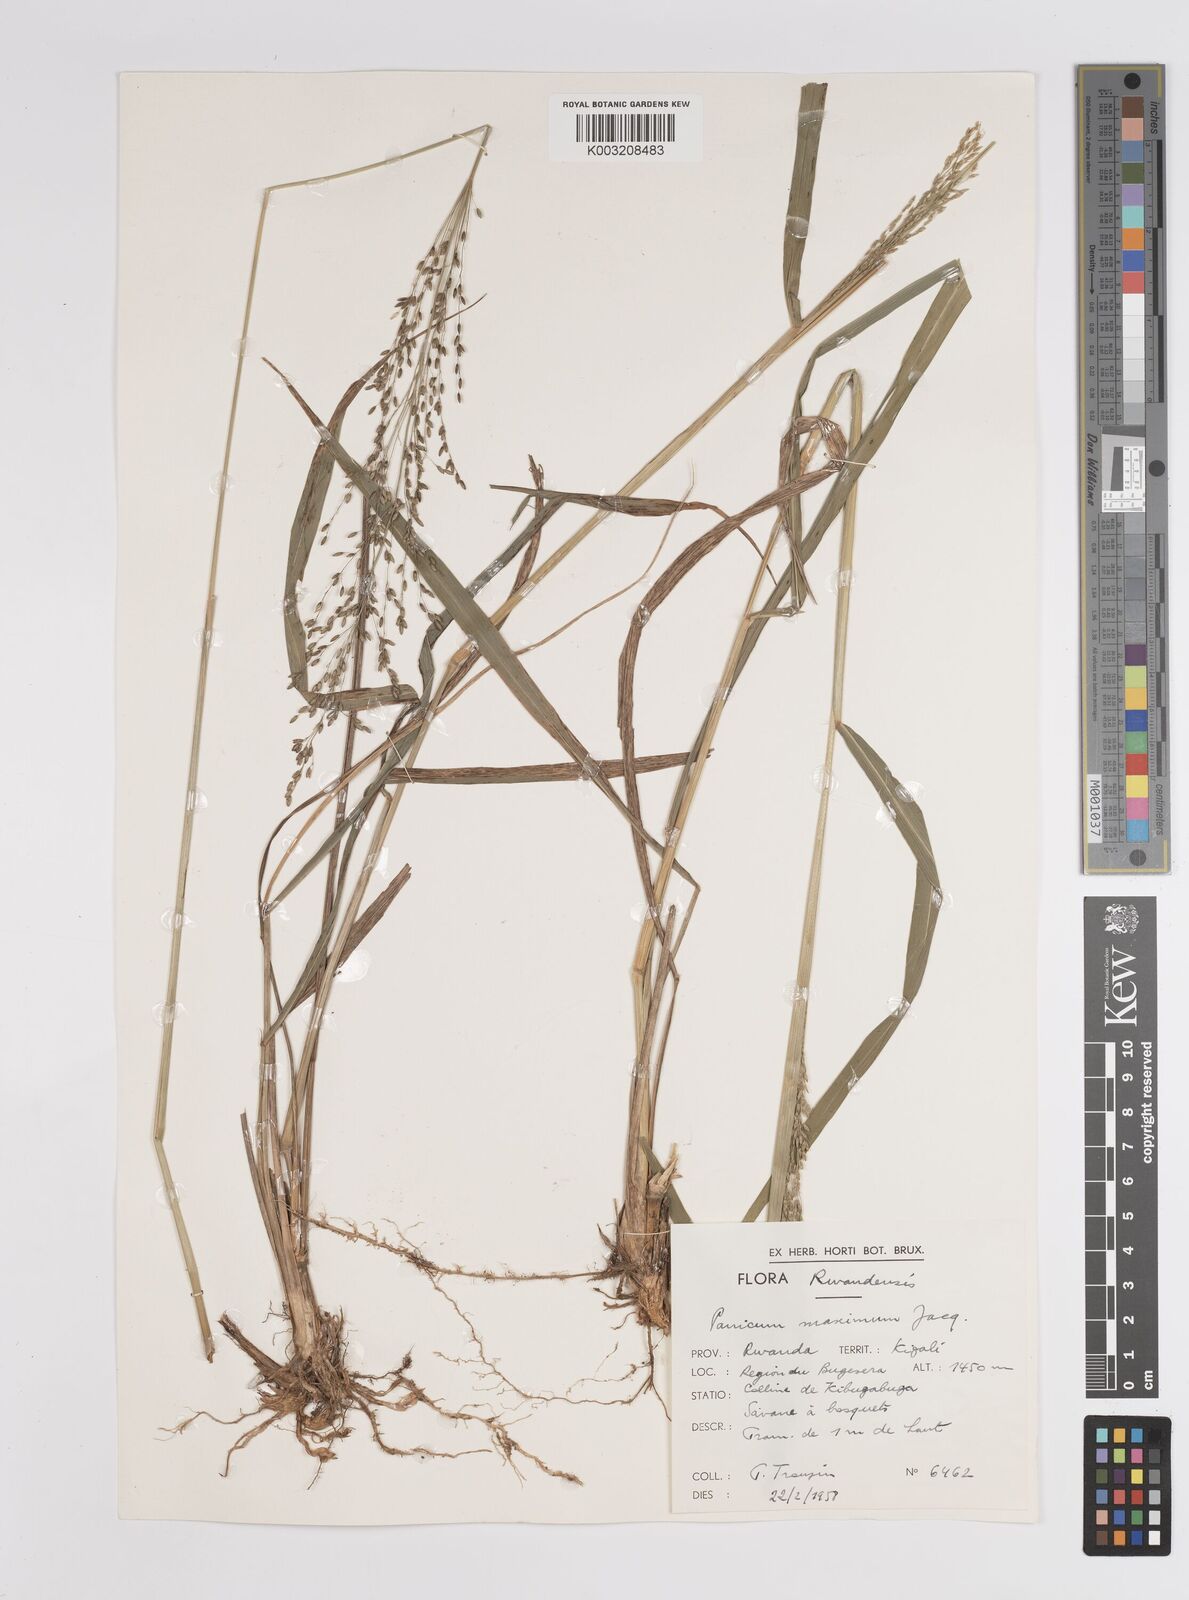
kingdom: Plantae
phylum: Tracheophyta
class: Liliopsida
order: Poales
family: Poaceae
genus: Megathyrsus
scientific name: Megathyrsus maximus
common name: Guineagrass
